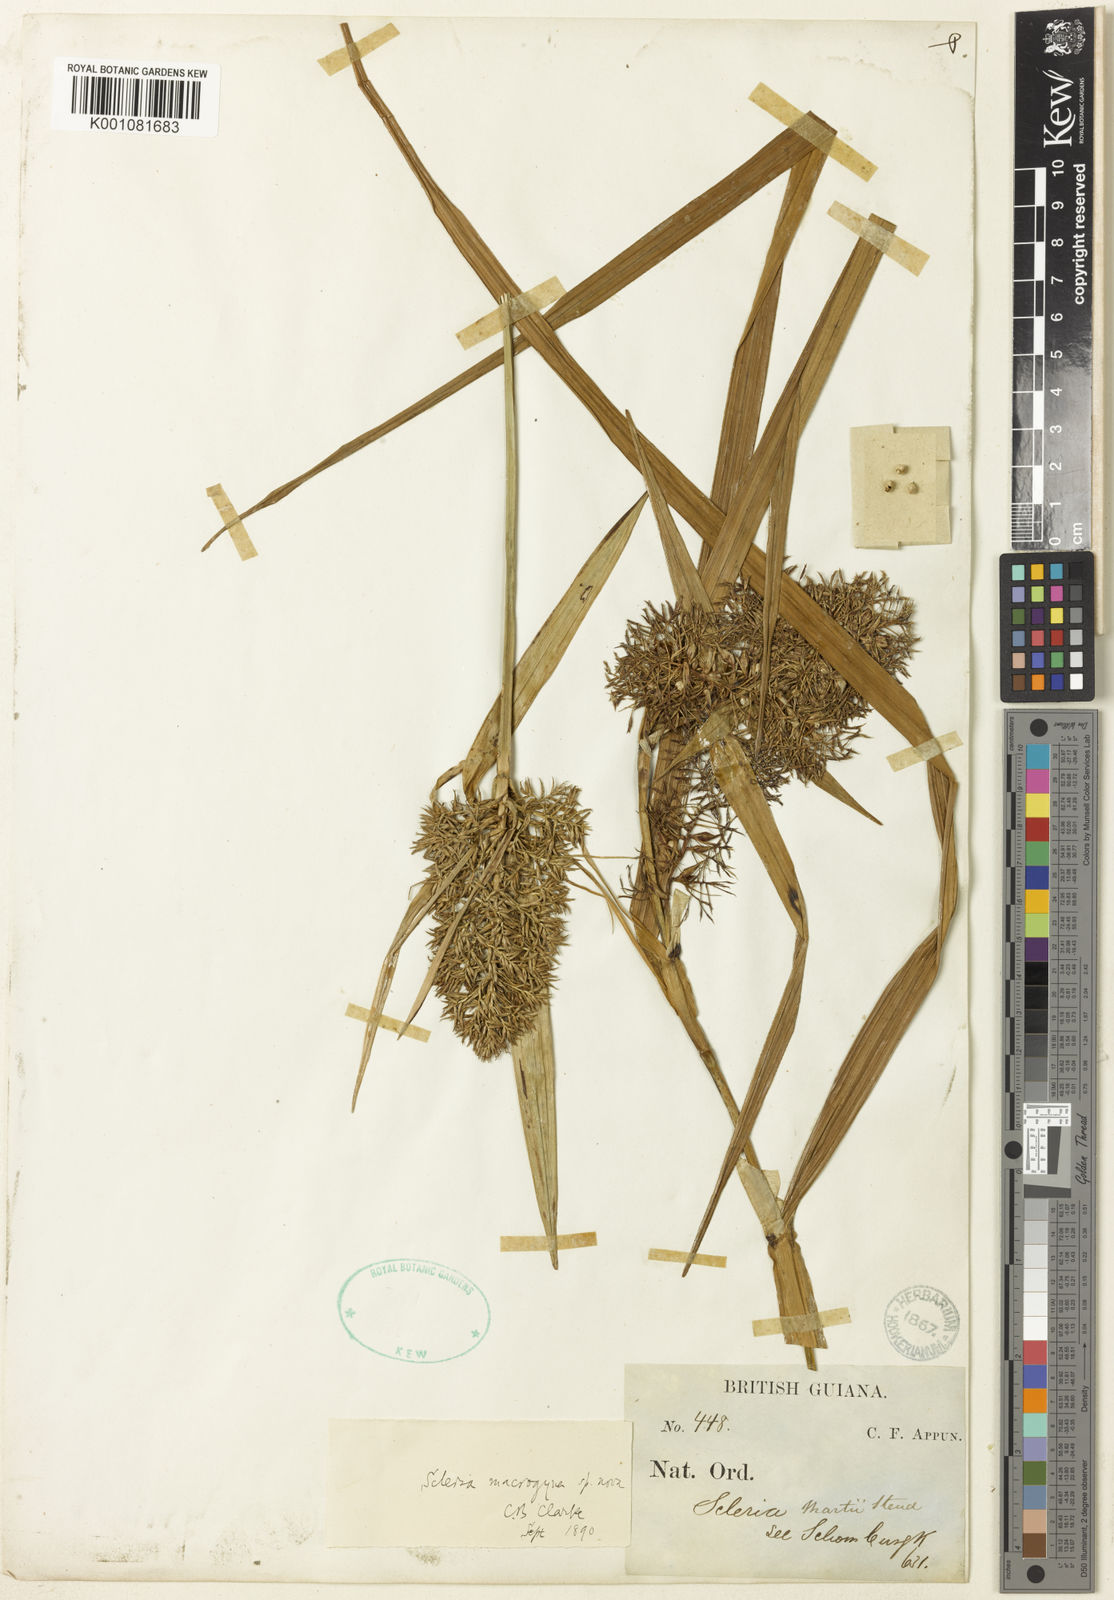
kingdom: Plantae
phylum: Tracheophyta
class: Liliopsida
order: Poales
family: Cyperaceae
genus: Scleria
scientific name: Scleria macrogyne
